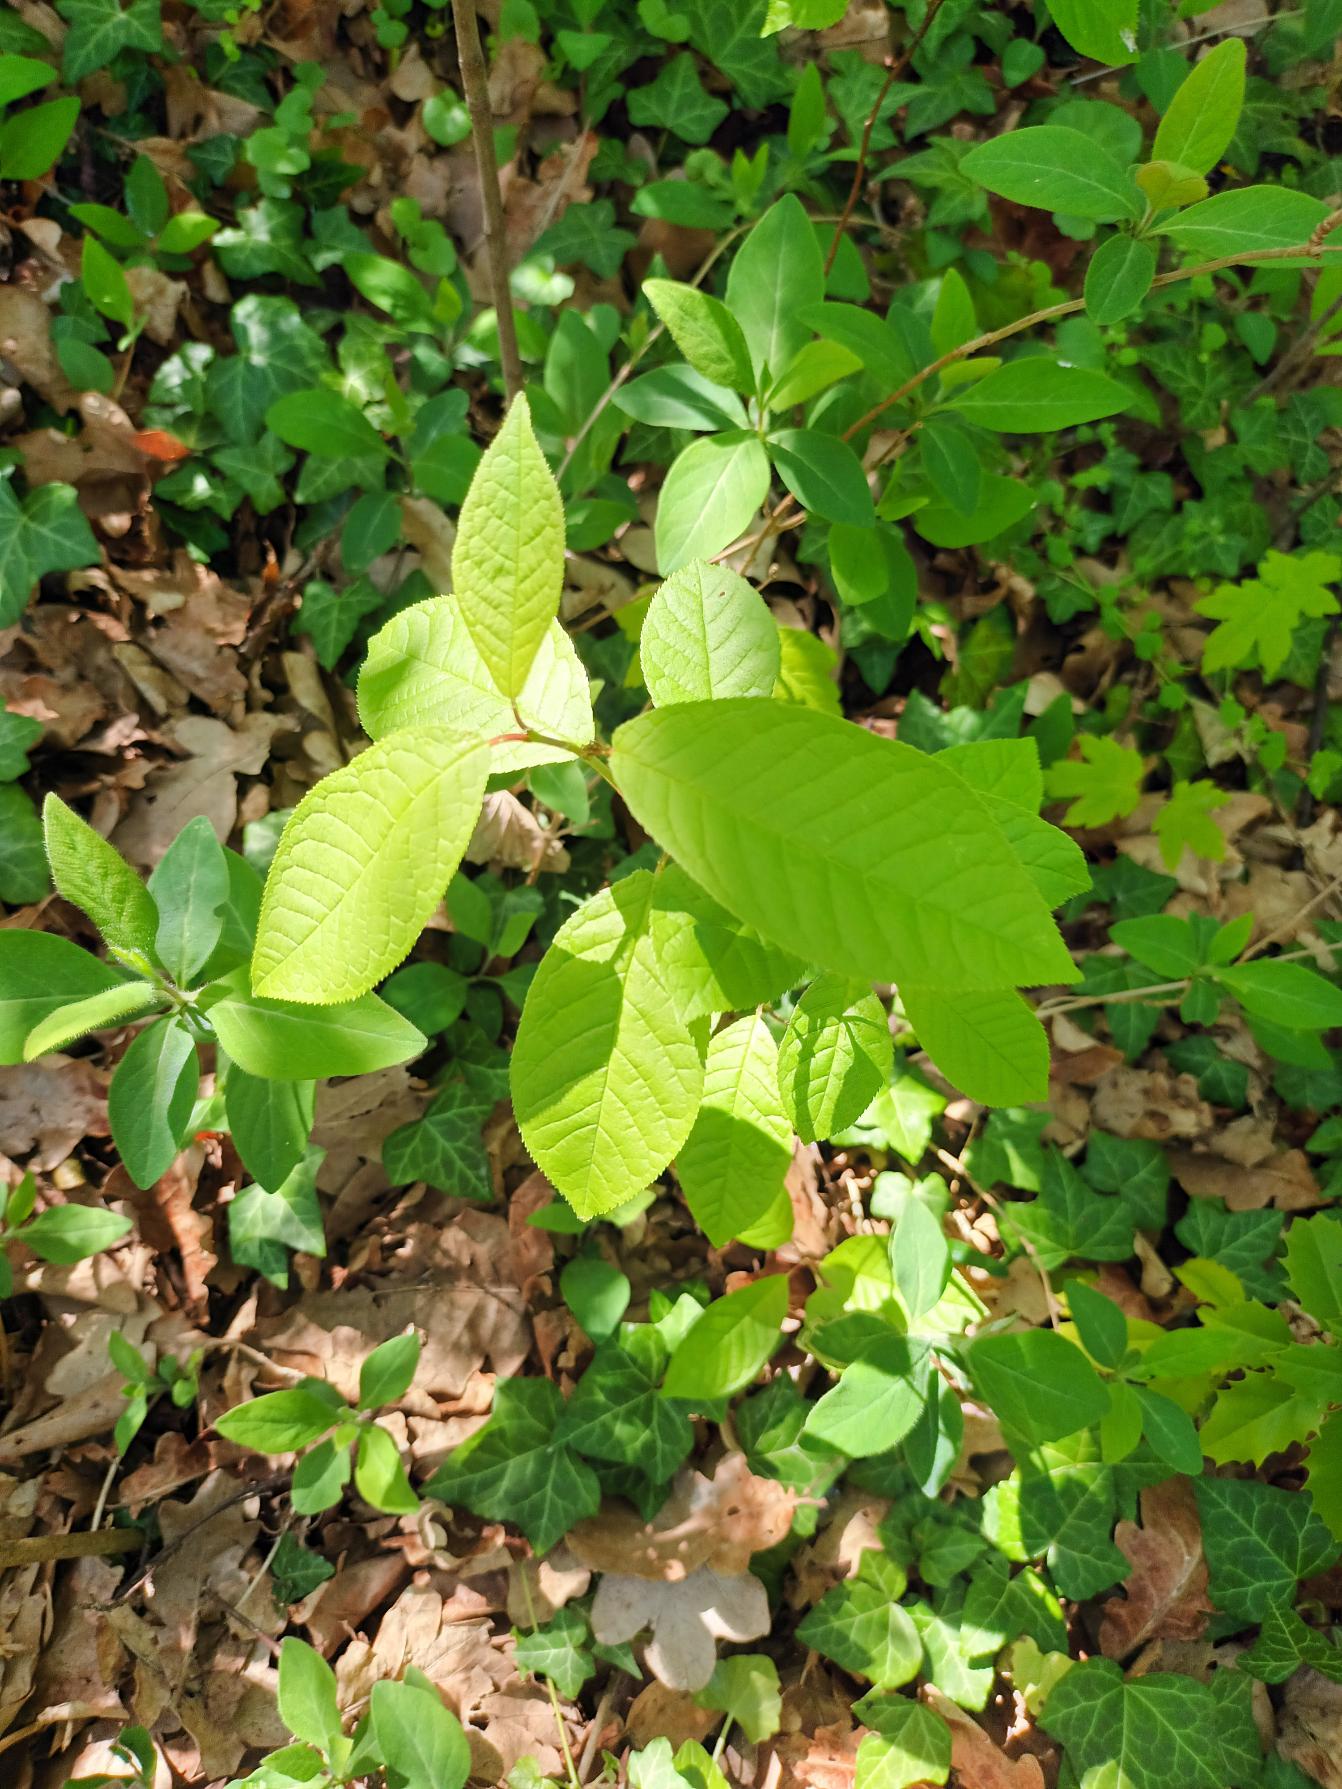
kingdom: Plantae
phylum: Tracheophyta
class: Magnoliopsida
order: Rosales
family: Rosaceae
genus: Prunus
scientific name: Prunus padus
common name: Almindelig hæg
